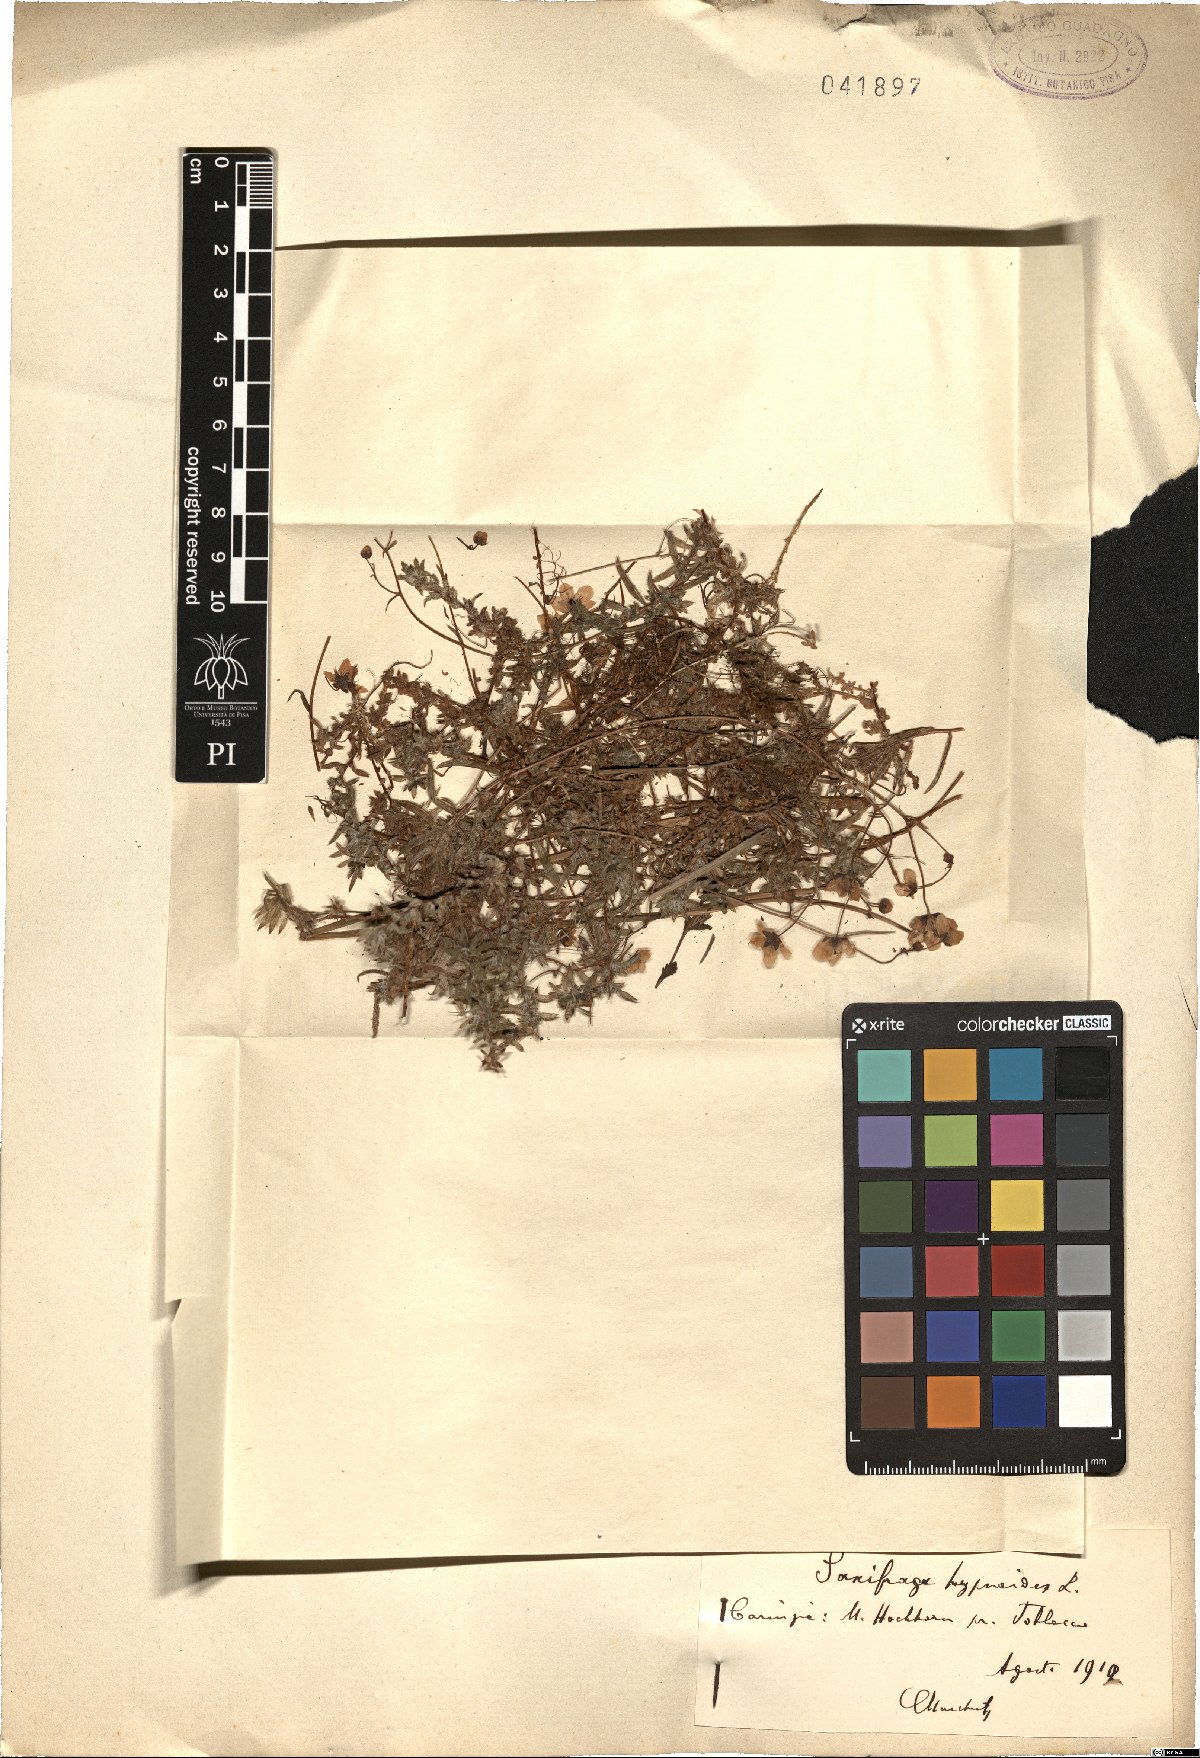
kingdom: Plantae
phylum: Tracheophyta
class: Magnoliopsida
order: Saxifragales
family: Saxifragaceae
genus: Saxifraga
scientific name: Saxifraga hypnoides
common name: Mossy saxifrage
